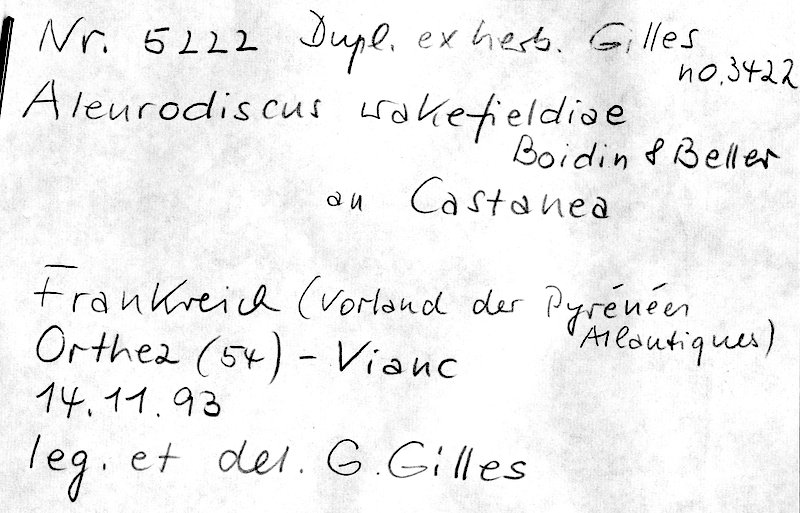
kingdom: Fungi
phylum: Basidiomycota
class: Agaricomycetes
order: Russulales
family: Stereaceae
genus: Aleurodiscus
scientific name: Aleurodiscus wakefieldiae
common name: Pink discus
